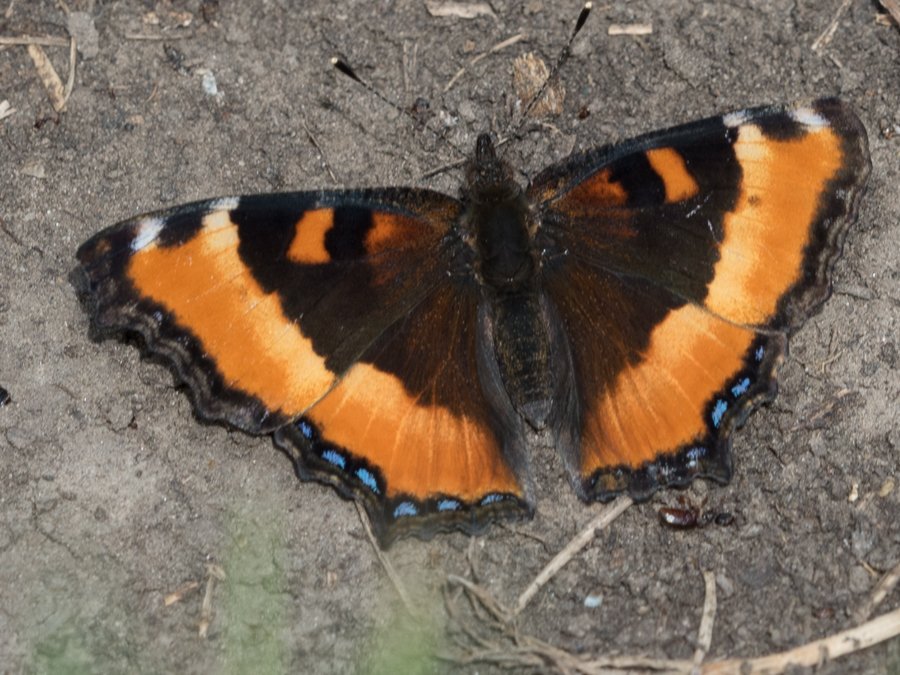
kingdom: Animalia
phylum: Arthropoda
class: Insecta
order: Lepidoptera
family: Nymphalidae
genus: Aglais
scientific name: Aglais milberti
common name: Milbert's Tortoiseshell
